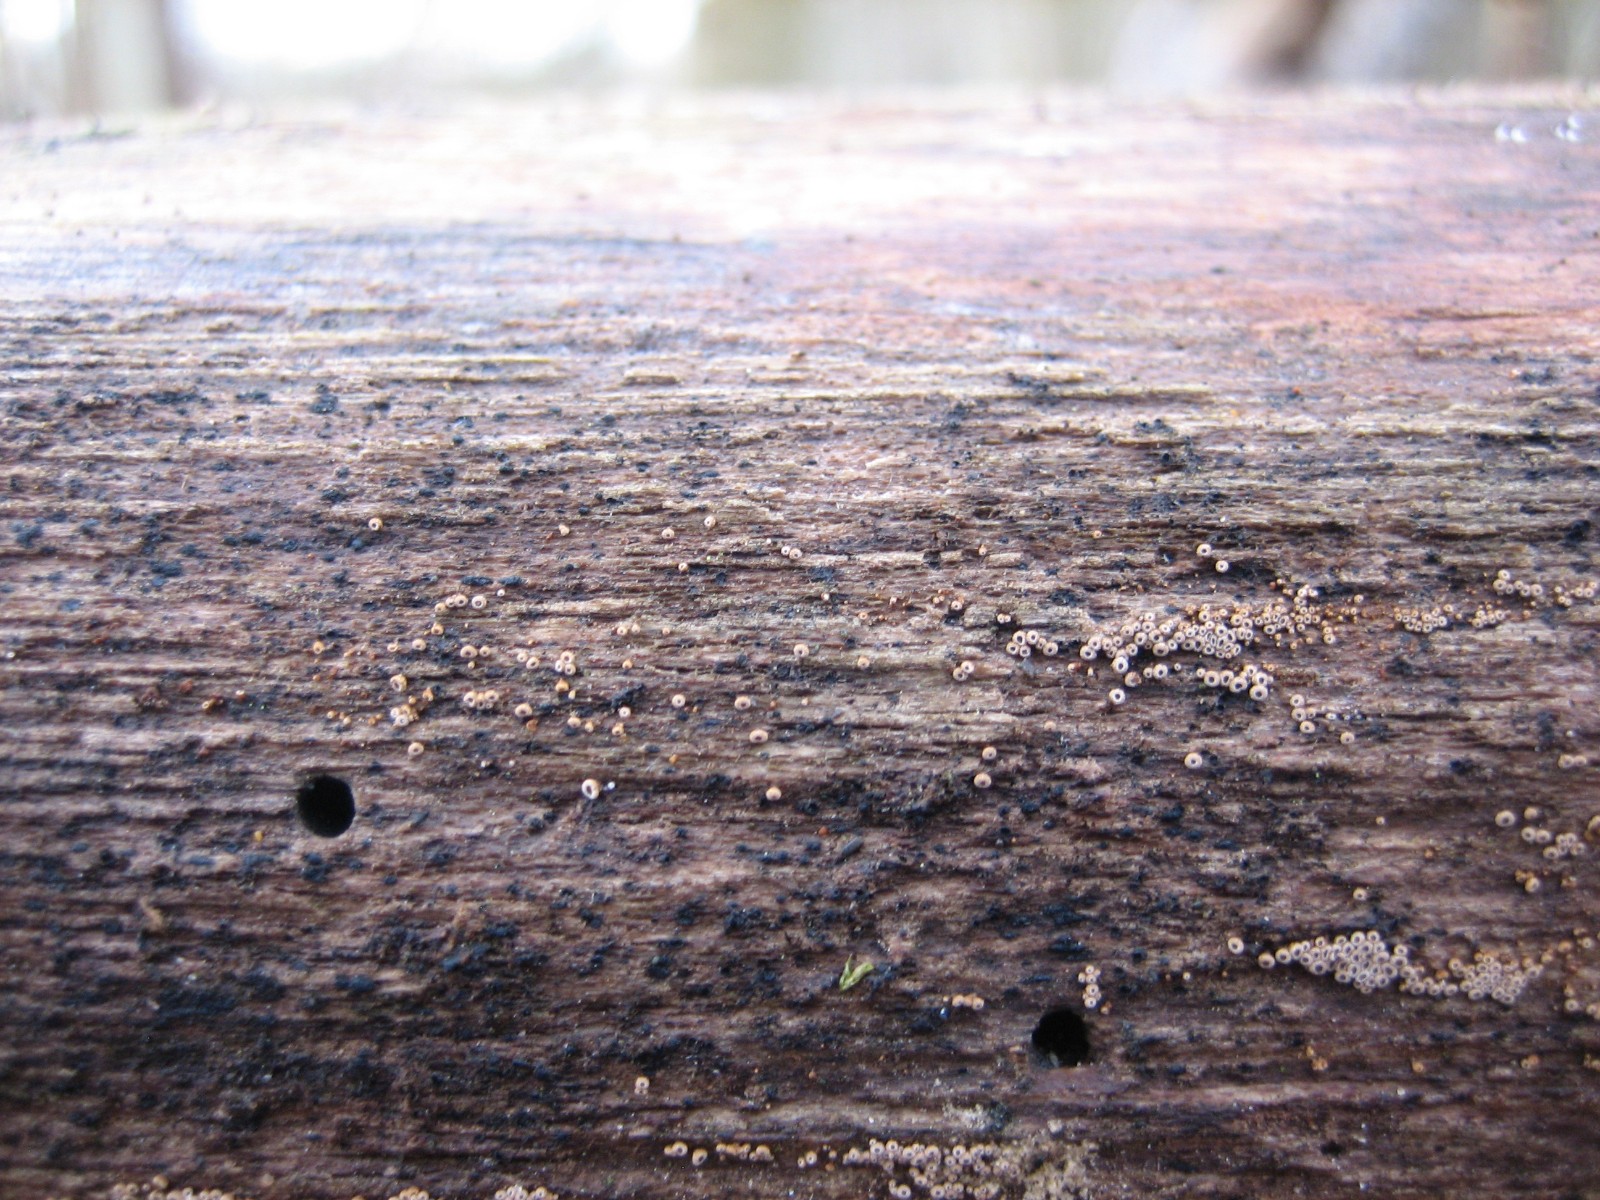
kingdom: Fungi
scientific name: Fungi
